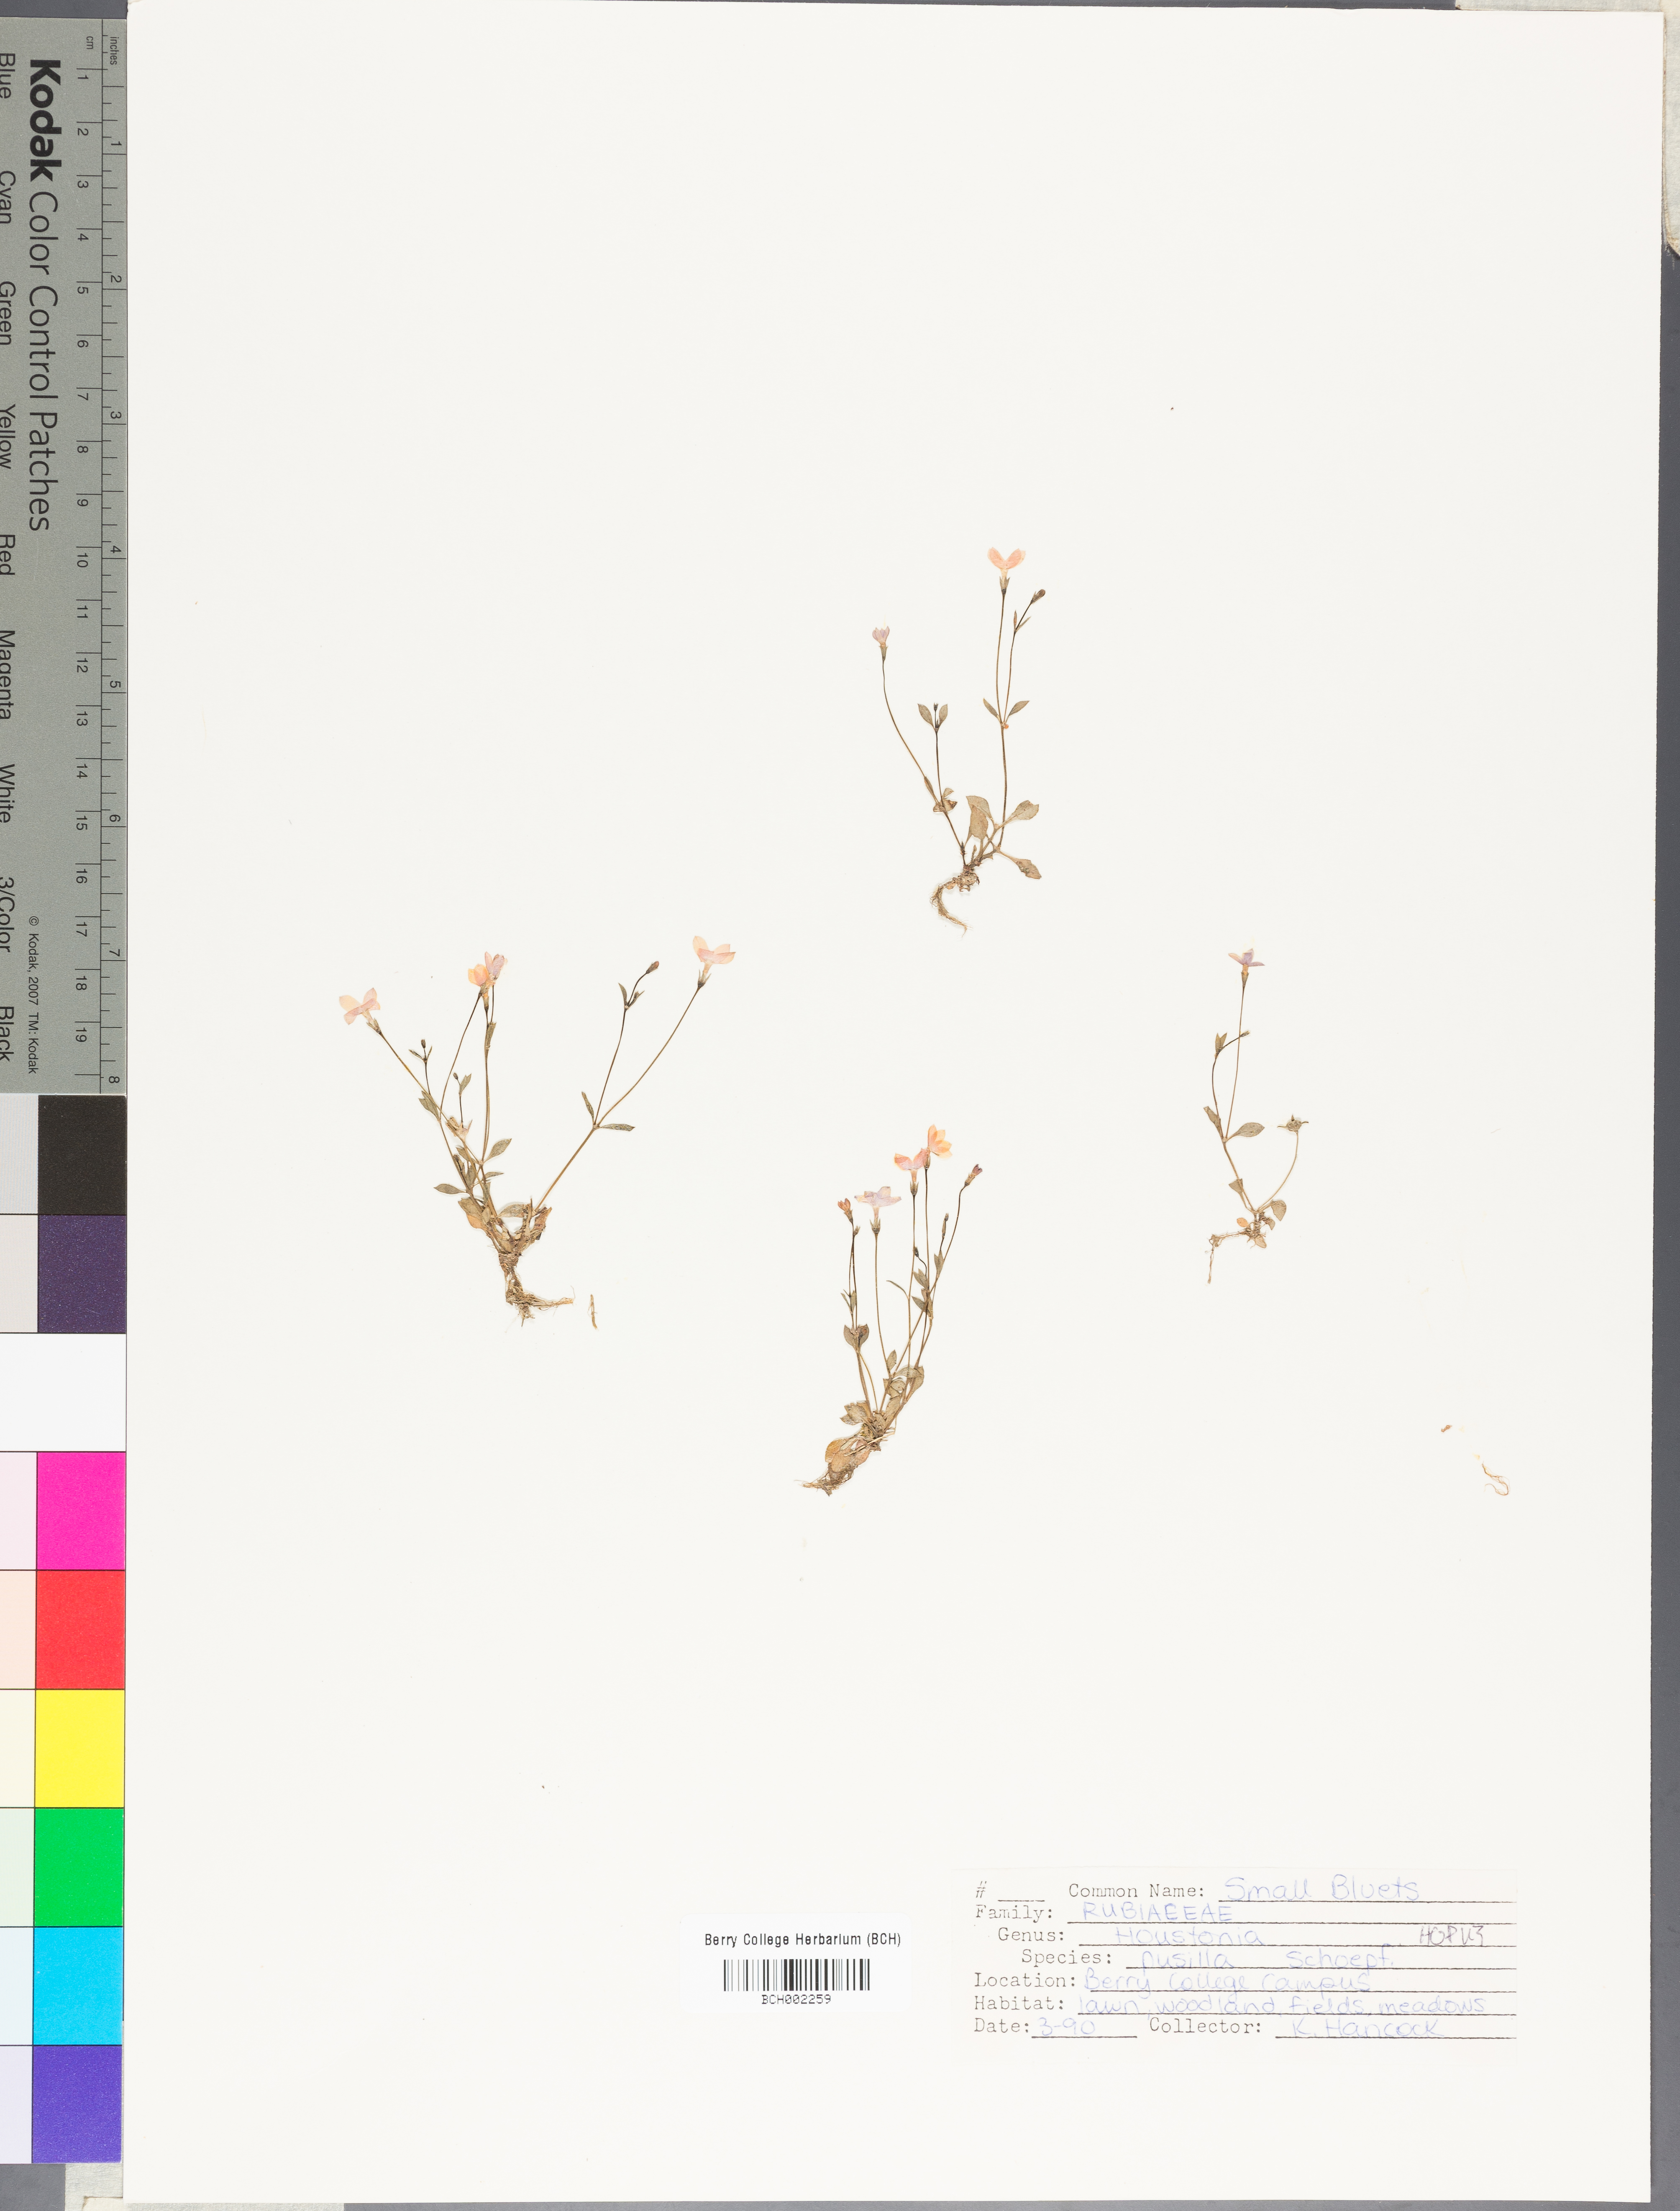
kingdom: Plantae
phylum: Tracheophyta
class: Magnoliopsida
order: Gentianales
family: Rubiaceae
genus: Houstonia
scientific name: Houstonia pusilla
